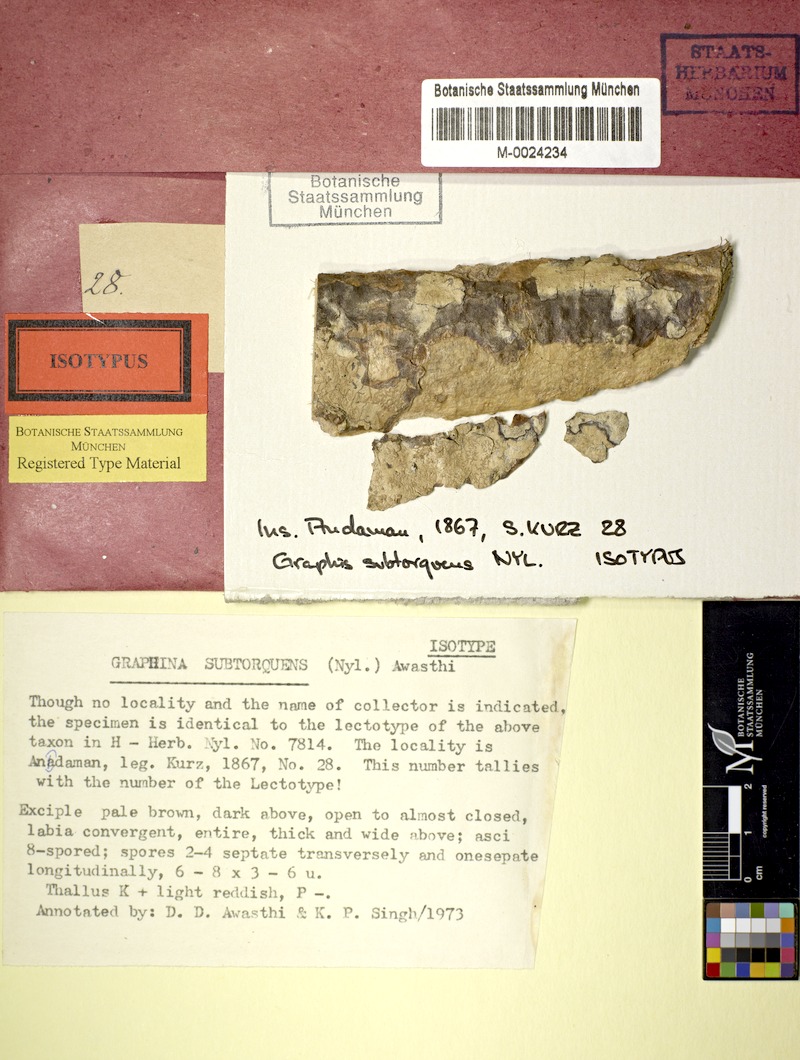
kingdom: Fungi
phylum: Ascomycota
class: Lecanoromycetes
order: Ostropales
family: Graphidaceae
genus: Anomomorpha
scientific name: Anomomorpha subtorquens
